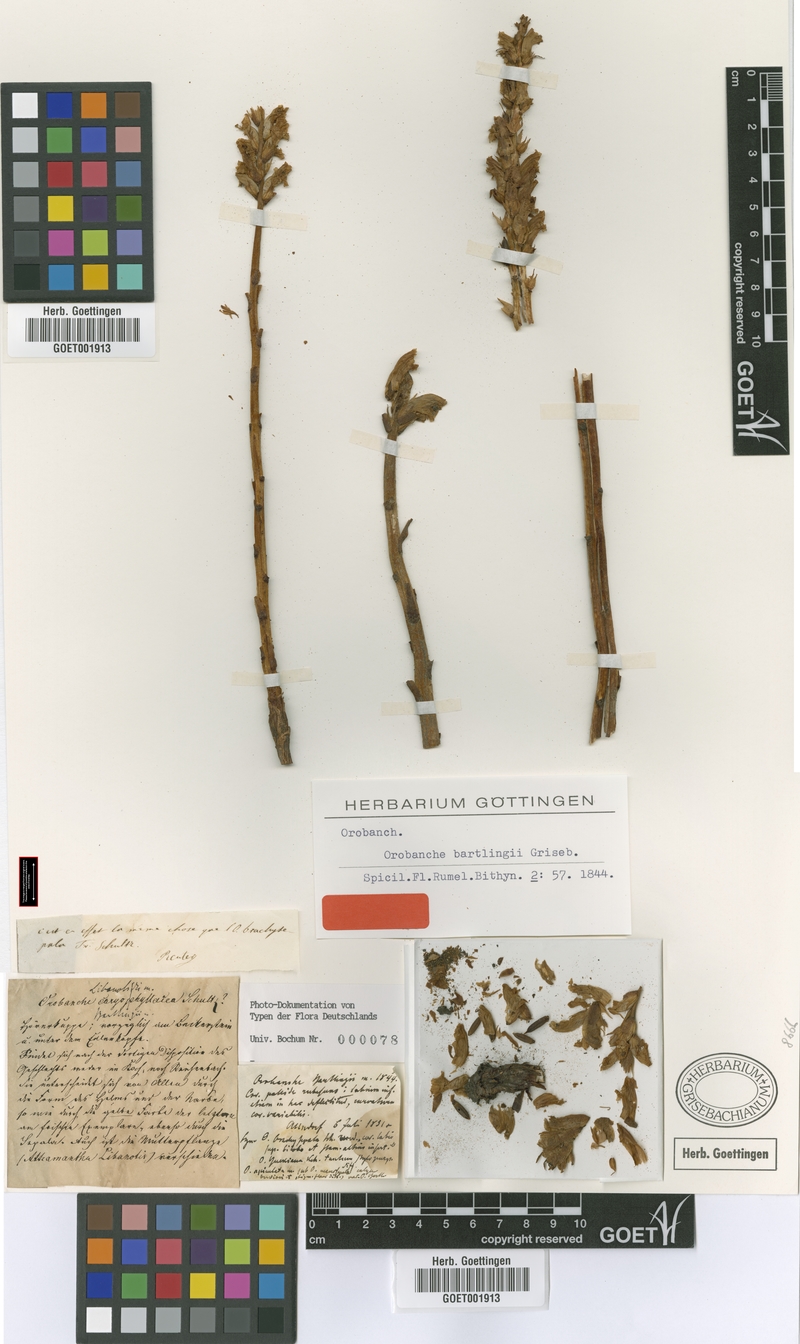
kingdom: Plantae
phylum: Tracheophyta
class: Magnoliopsida
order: Lamiales
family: Orobanchaceae
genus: Orobanche
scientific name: Orobanche alsatica
